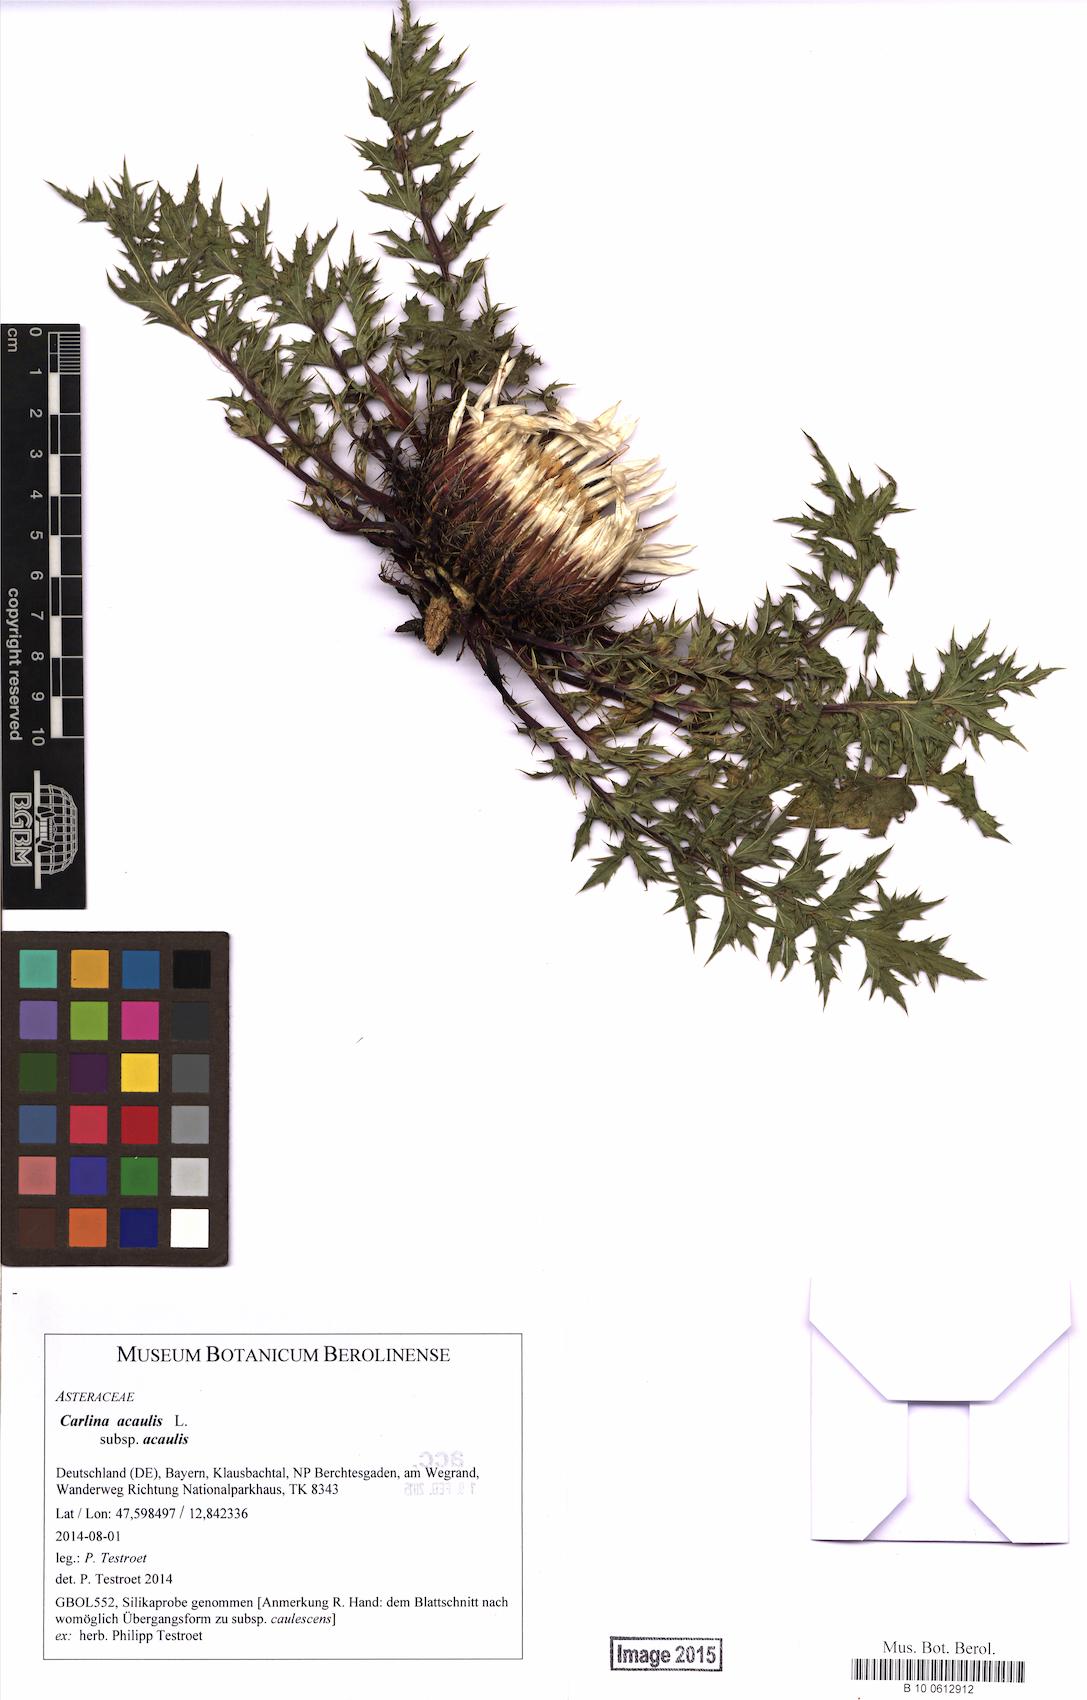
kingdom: Plantae
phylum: Tracheophyta
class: Magnoliopsida
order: Asterales
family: Asteraceae
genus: Carlina
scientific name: Carlina acaulis
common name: Stemless carline thistle
